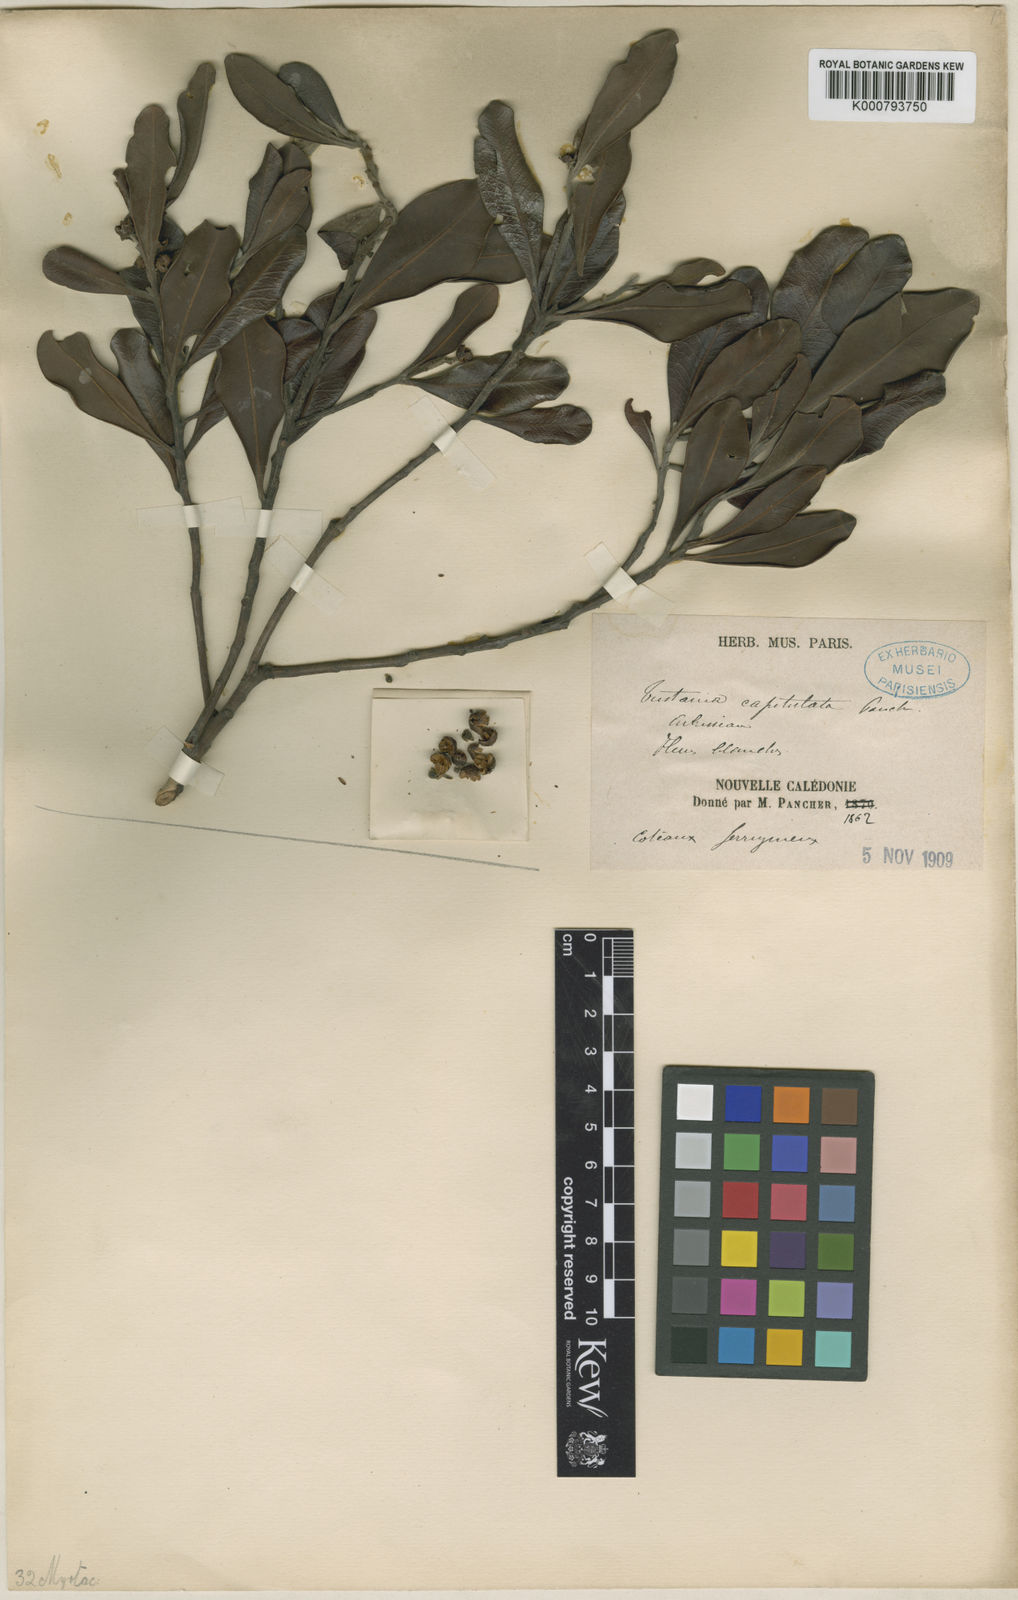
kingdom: Plantae
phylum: Tracheophyta
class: Magnoliopsida
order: Myrtales
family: Myrtaceae
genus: Tristaniopsis
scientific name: Tristaniopsis capitulata
